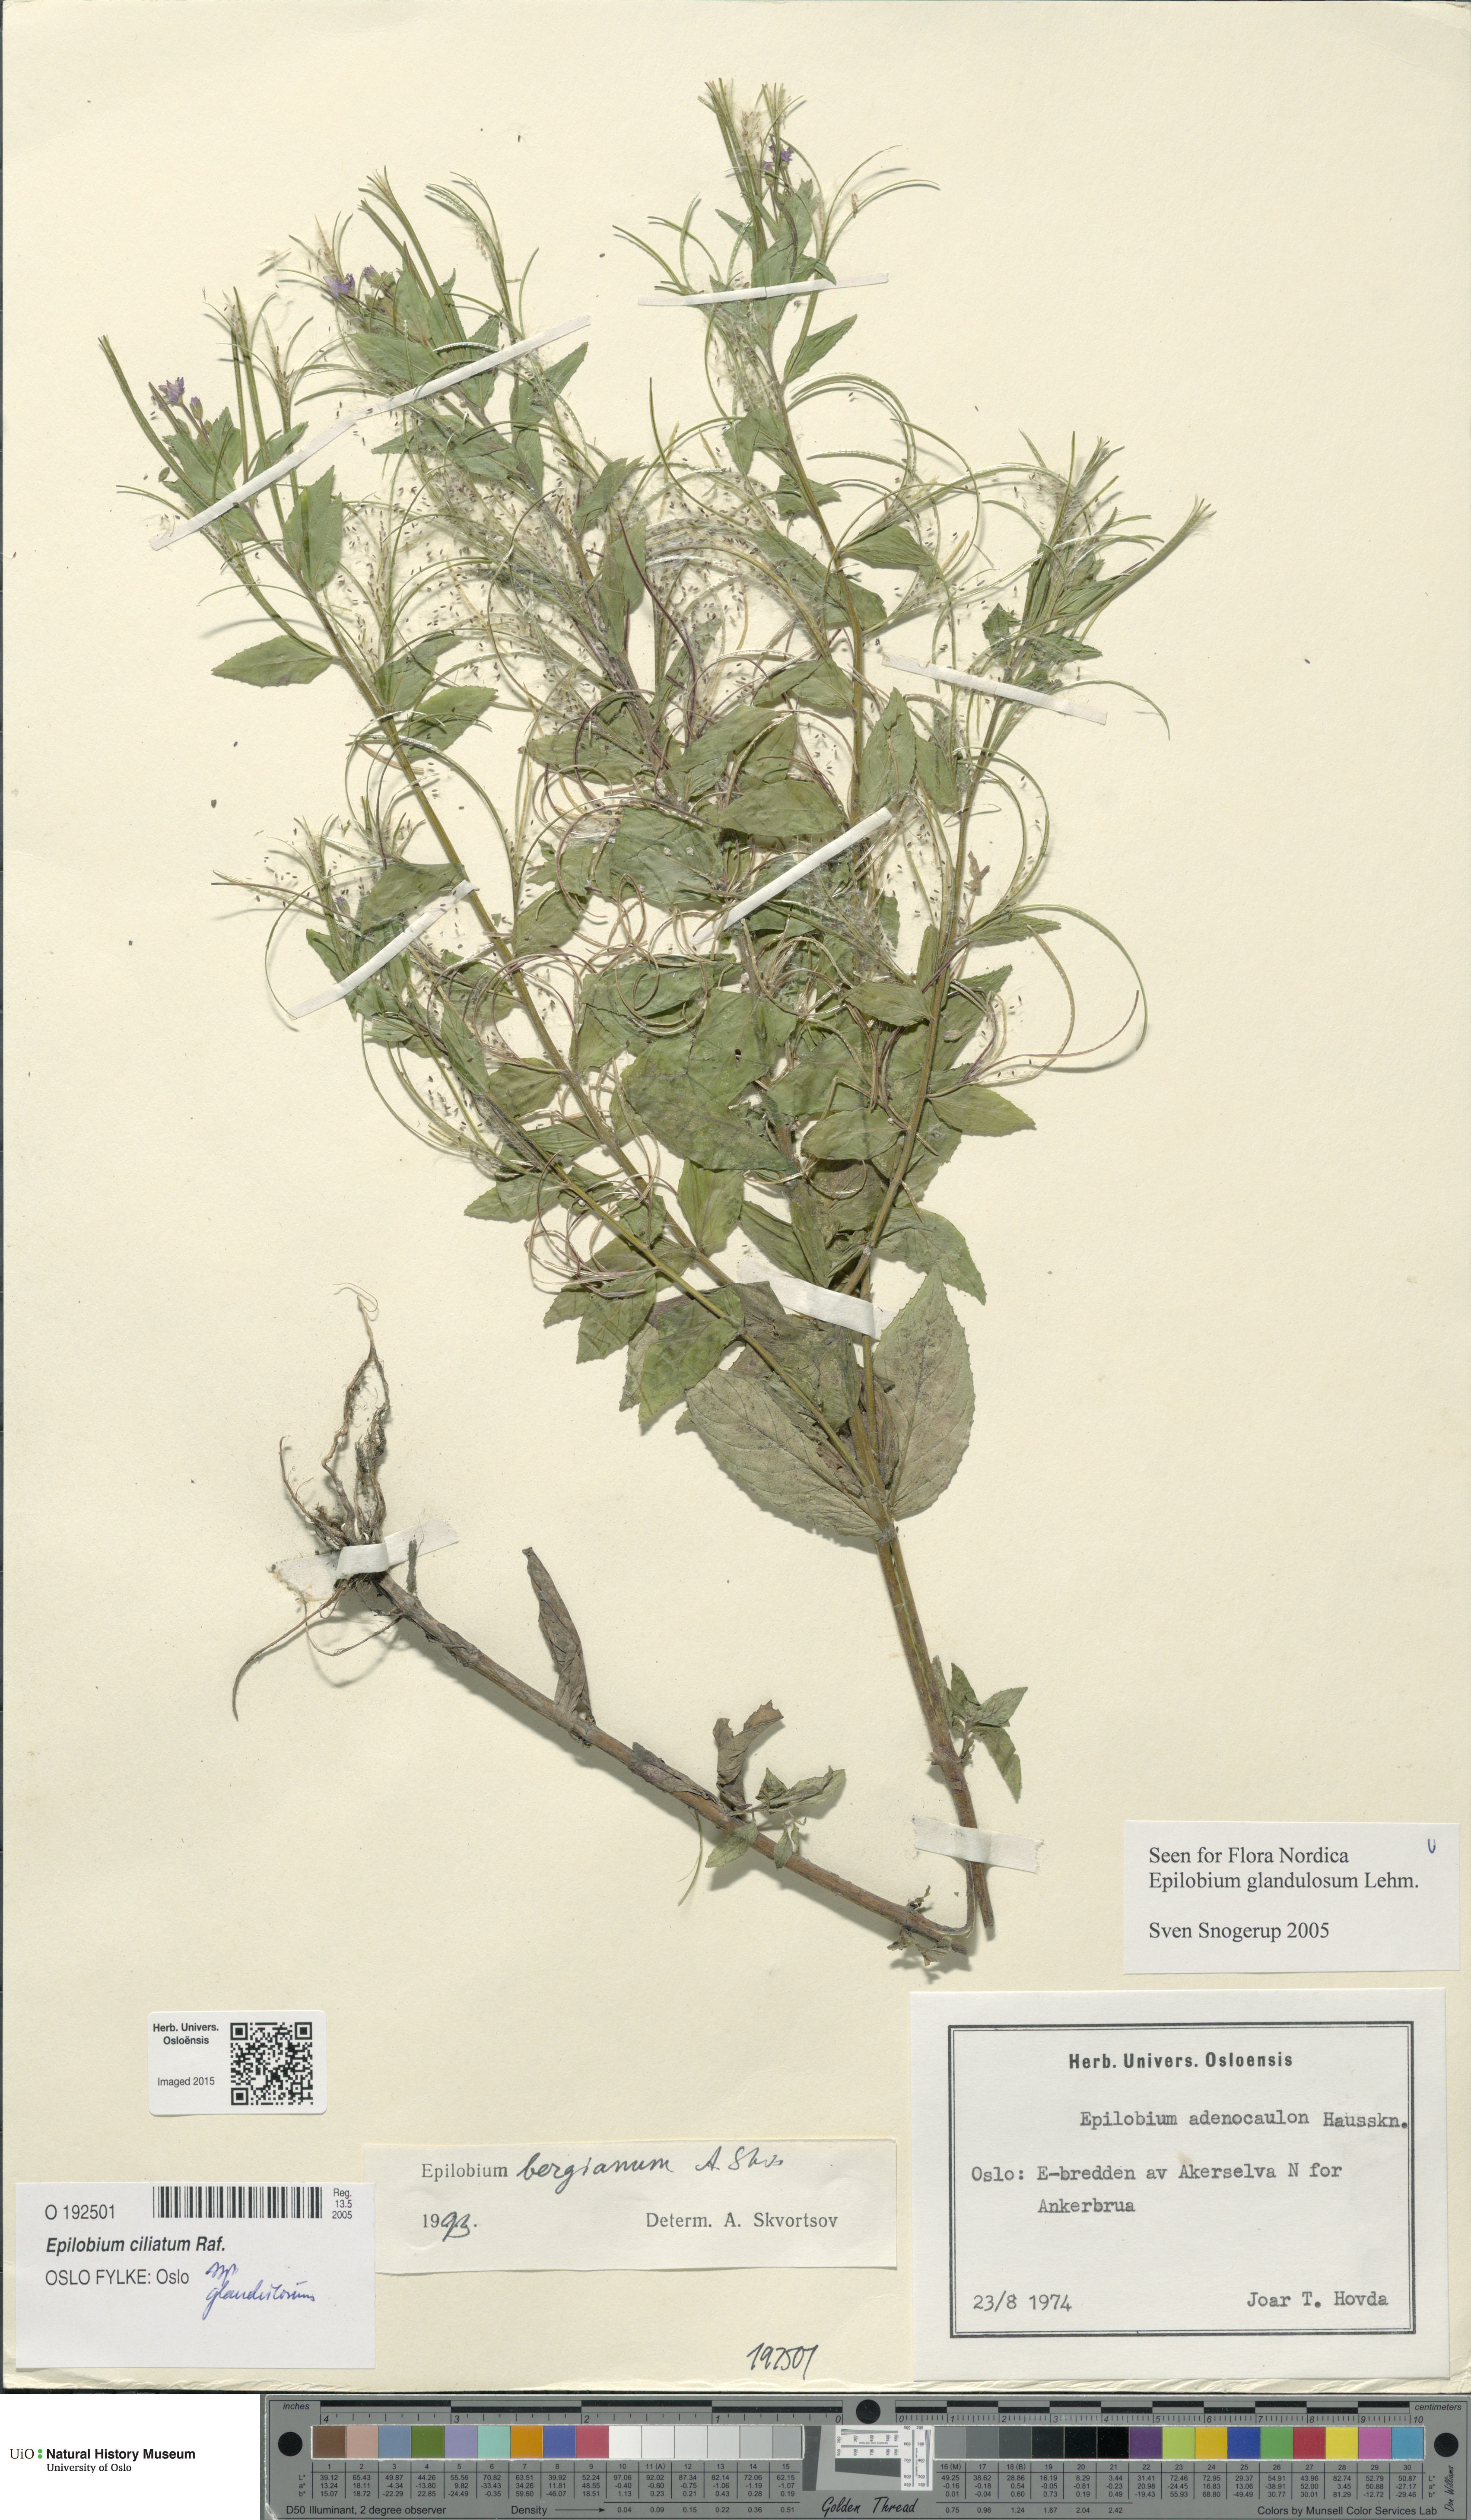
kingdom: Plantae
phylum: Tracheophyta
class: Magnoliopsida
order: Myrtales
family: Onagraceae
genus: Epilobium
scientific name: Epilobium ciliatum
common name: American willowherb
